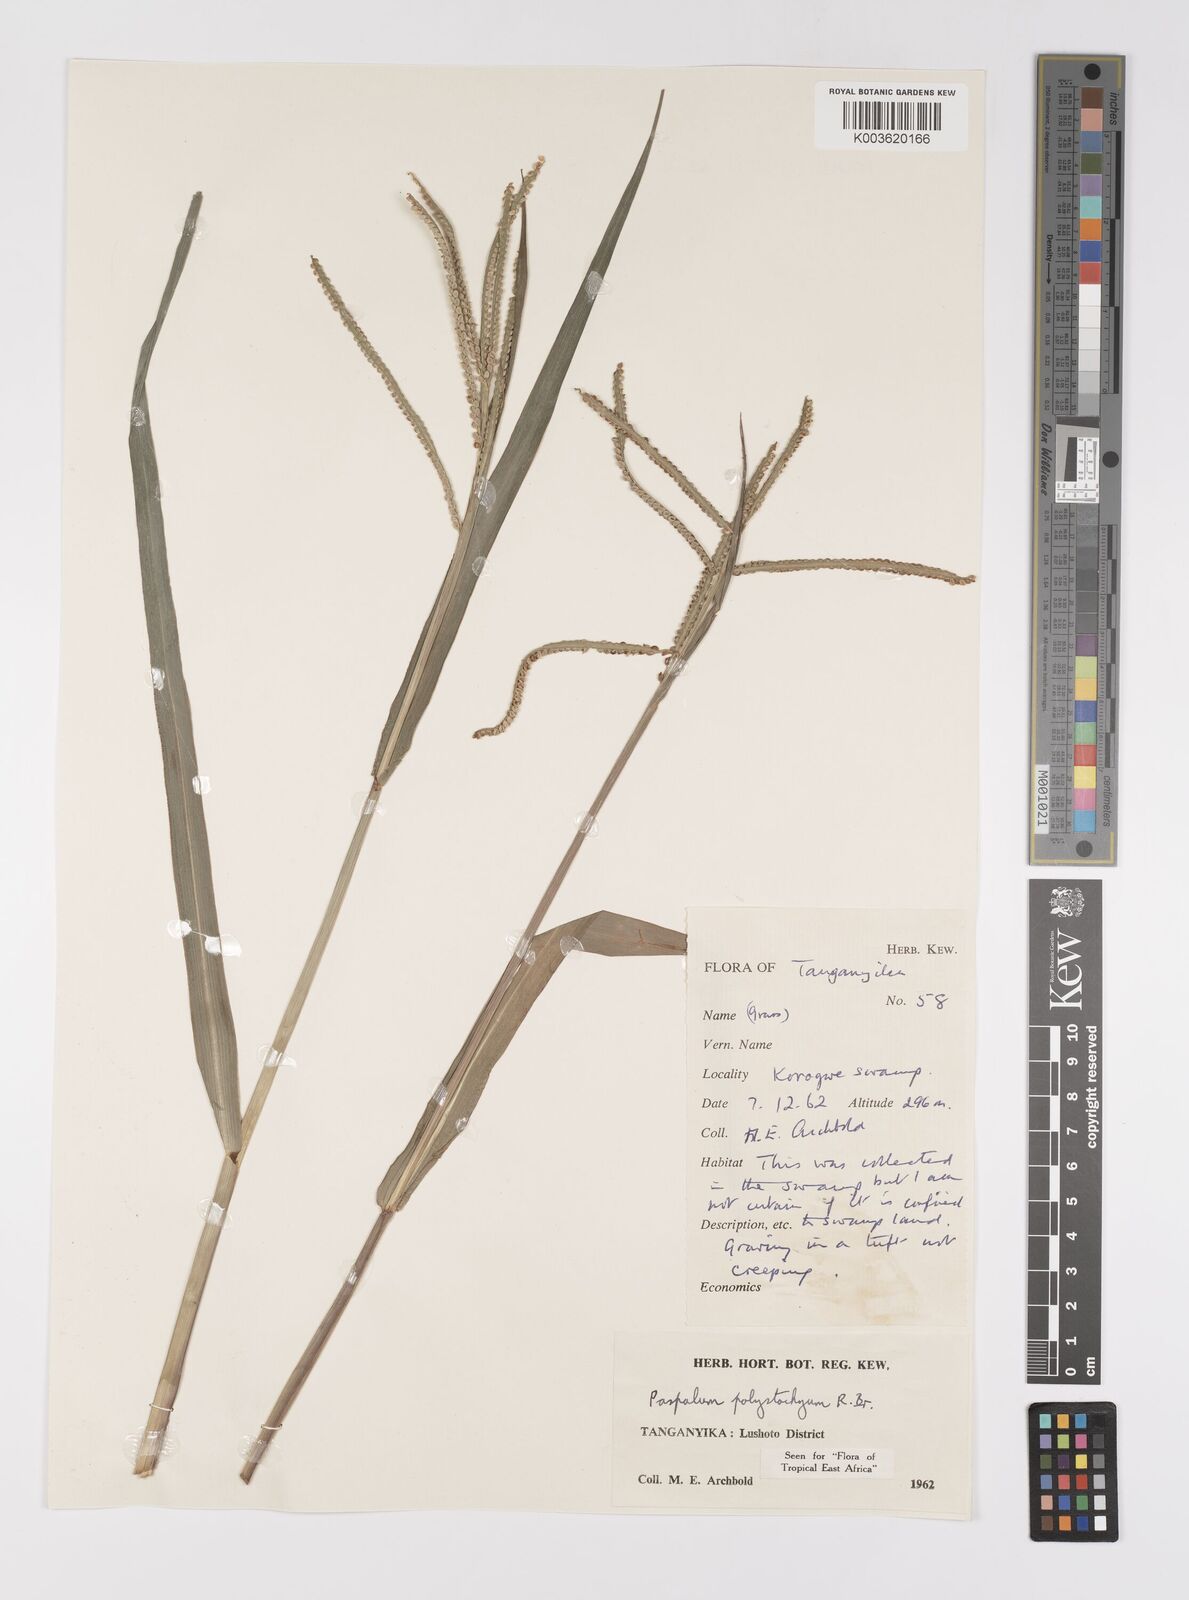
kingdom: Plantae
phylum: Tracheophyta
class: Liliopsida
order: Poales
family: Poaceae
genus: Paspalum
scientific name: Paspalum scrobiculatum
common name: Kodo millet
